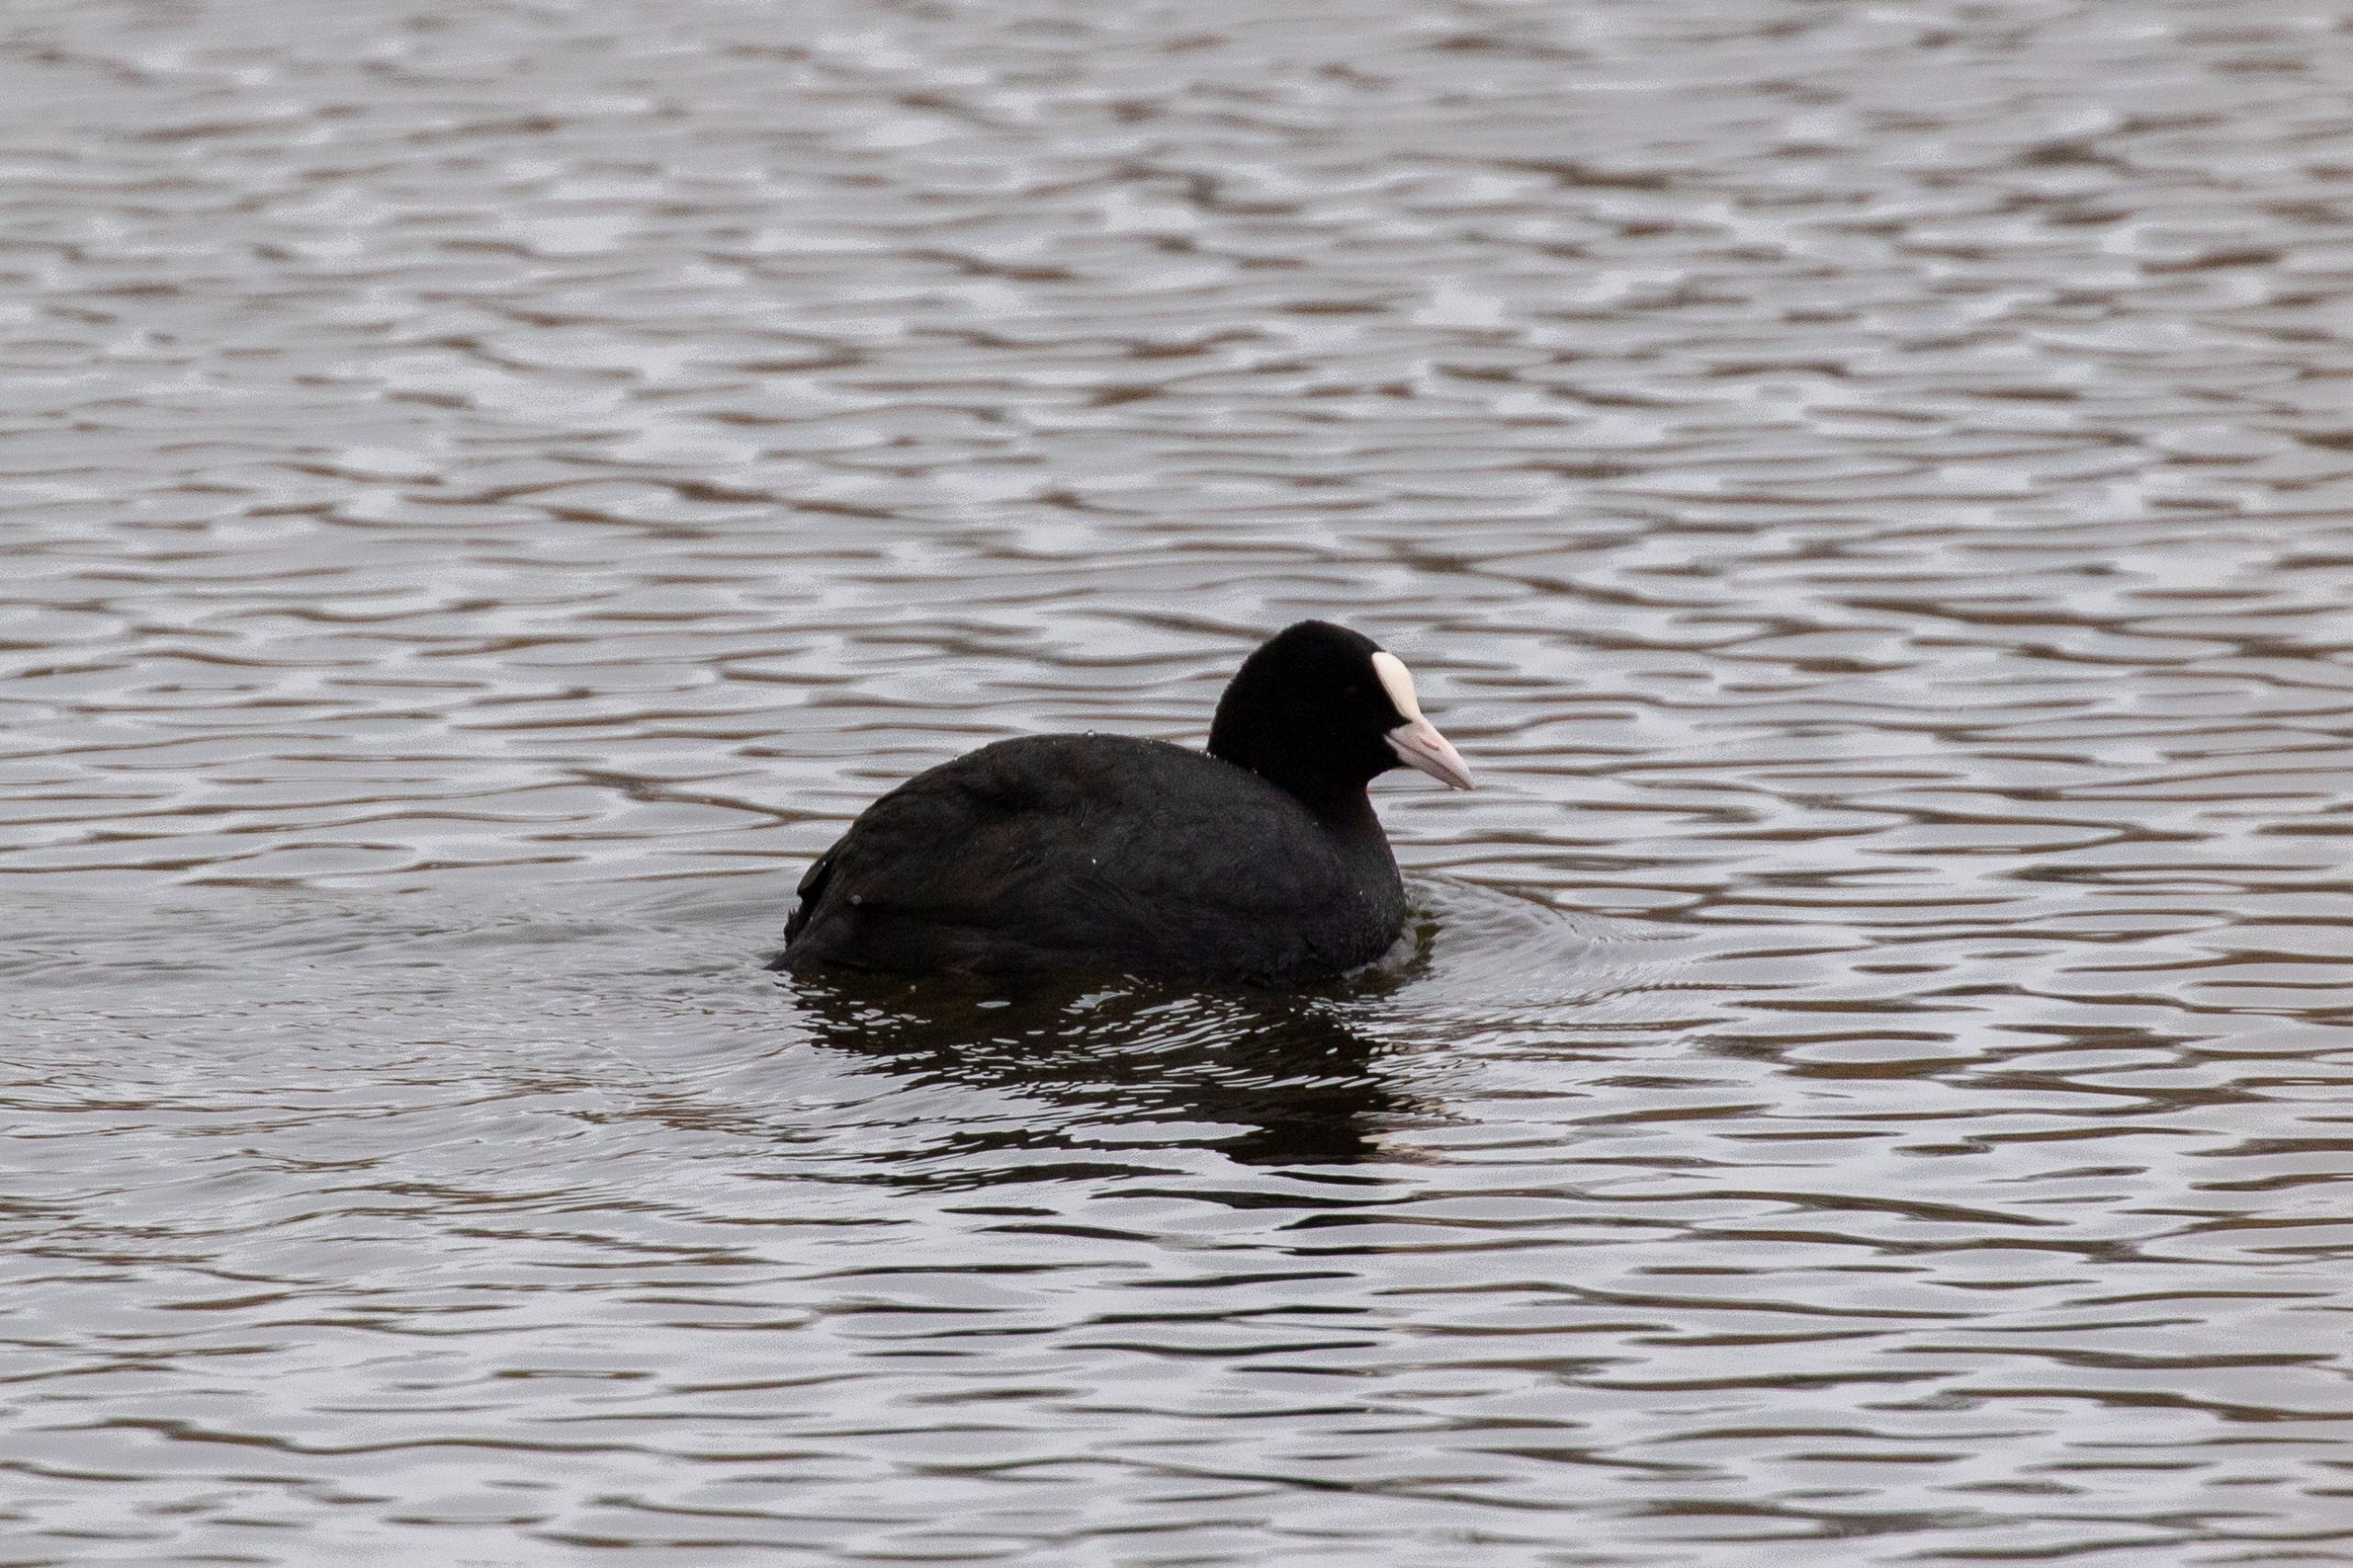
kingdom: Animalia
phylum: Chordata
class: Aves
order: Gruiformes
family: Rallidae
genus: Fulica
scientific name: Fulica atra
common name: Blishøne
